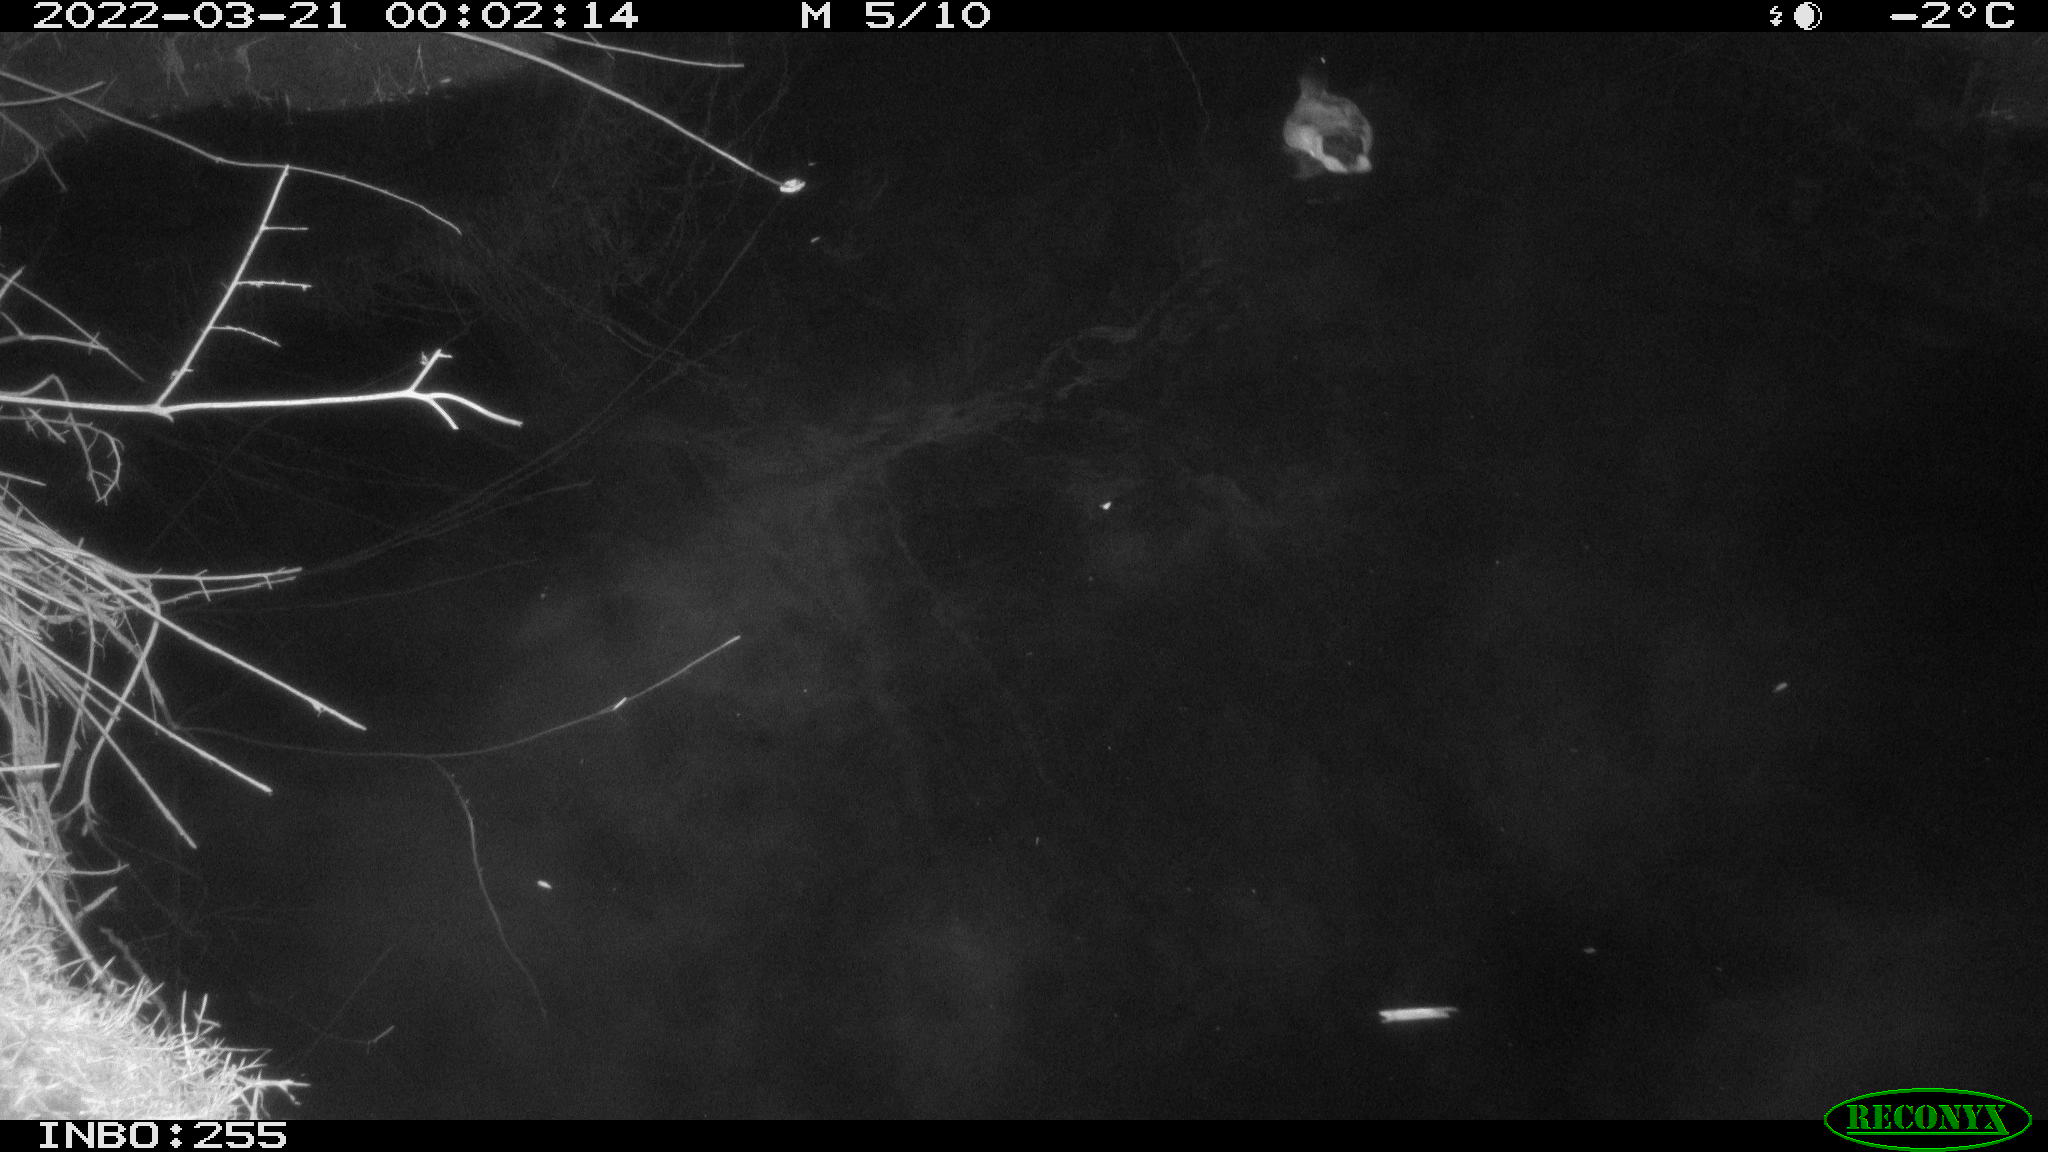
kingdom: Animalia
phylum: Chordata
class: Aves
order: Anseriformes
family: Anatidae
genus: Anas
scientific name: Anas platyrhynchos
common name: Mallard
